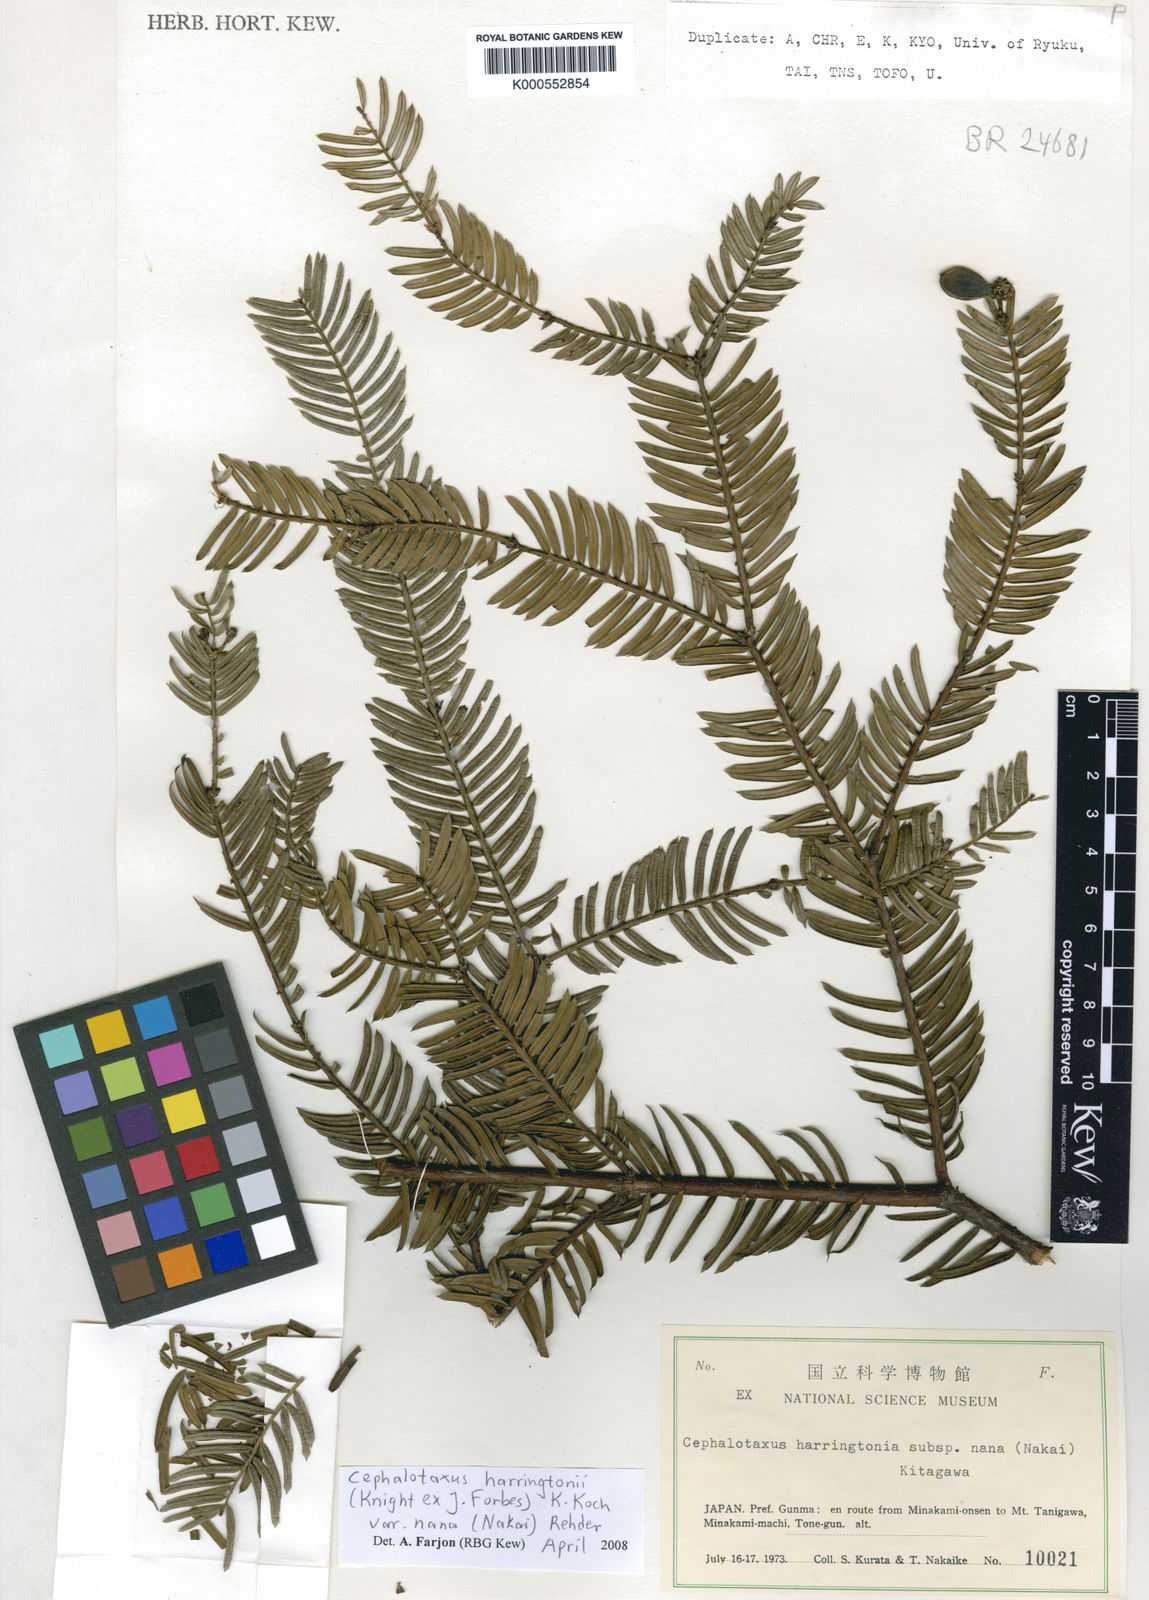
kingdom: Plantae
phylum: Tracheophyta
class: Pinopsida
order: Pinales
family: Cephalotaxaceae
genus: Cephalotaxus
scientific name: Cephalotaxus
